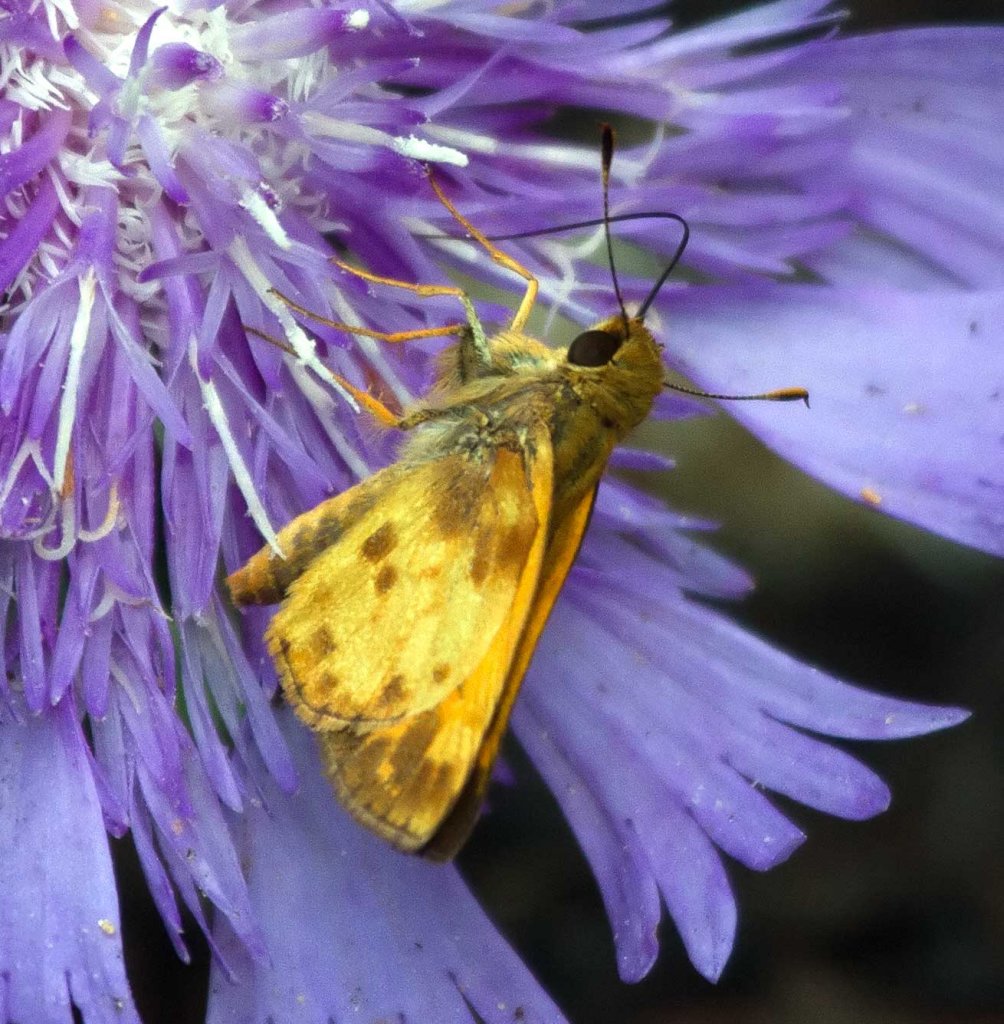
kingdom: Animalia
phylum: Arthropoda
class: Insecta
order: Lepidoptera
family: Hesperiidae
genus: Lon
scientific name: Lon zabulon
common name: Zabulon Skipper
